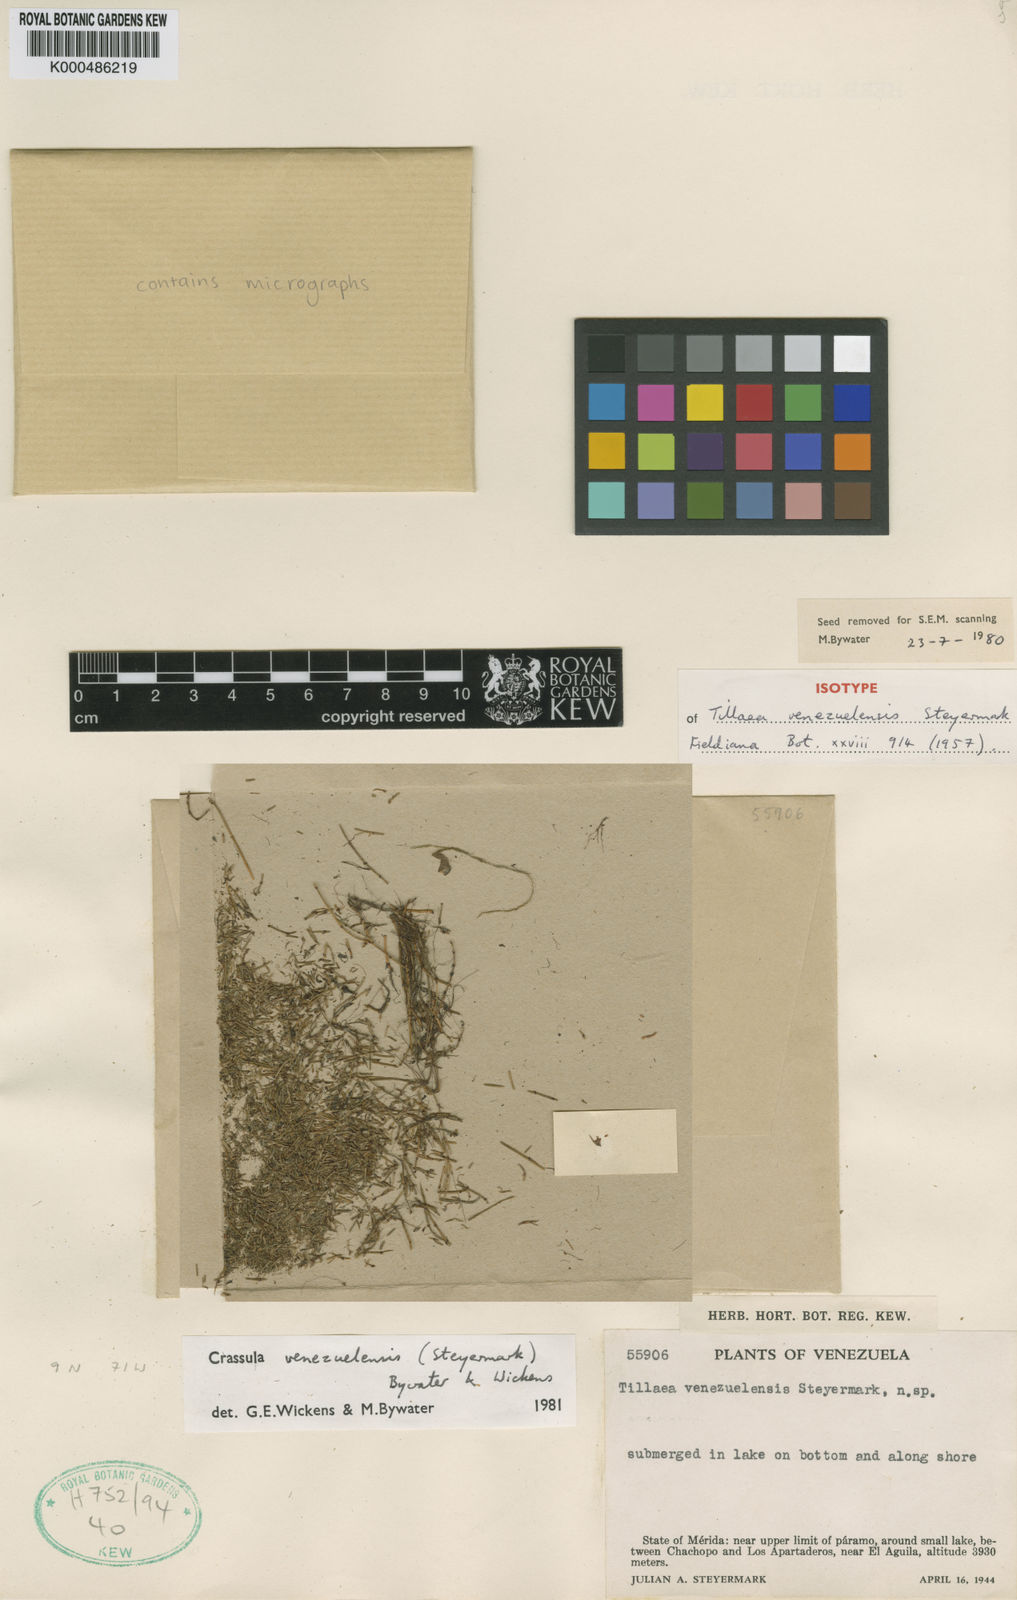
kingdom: Plantae
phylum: Tracheophyta
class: Magnoliopsida
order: Saxifragales
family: Crassulaceae
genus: Crassula
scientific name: Crassula venezuelensis
